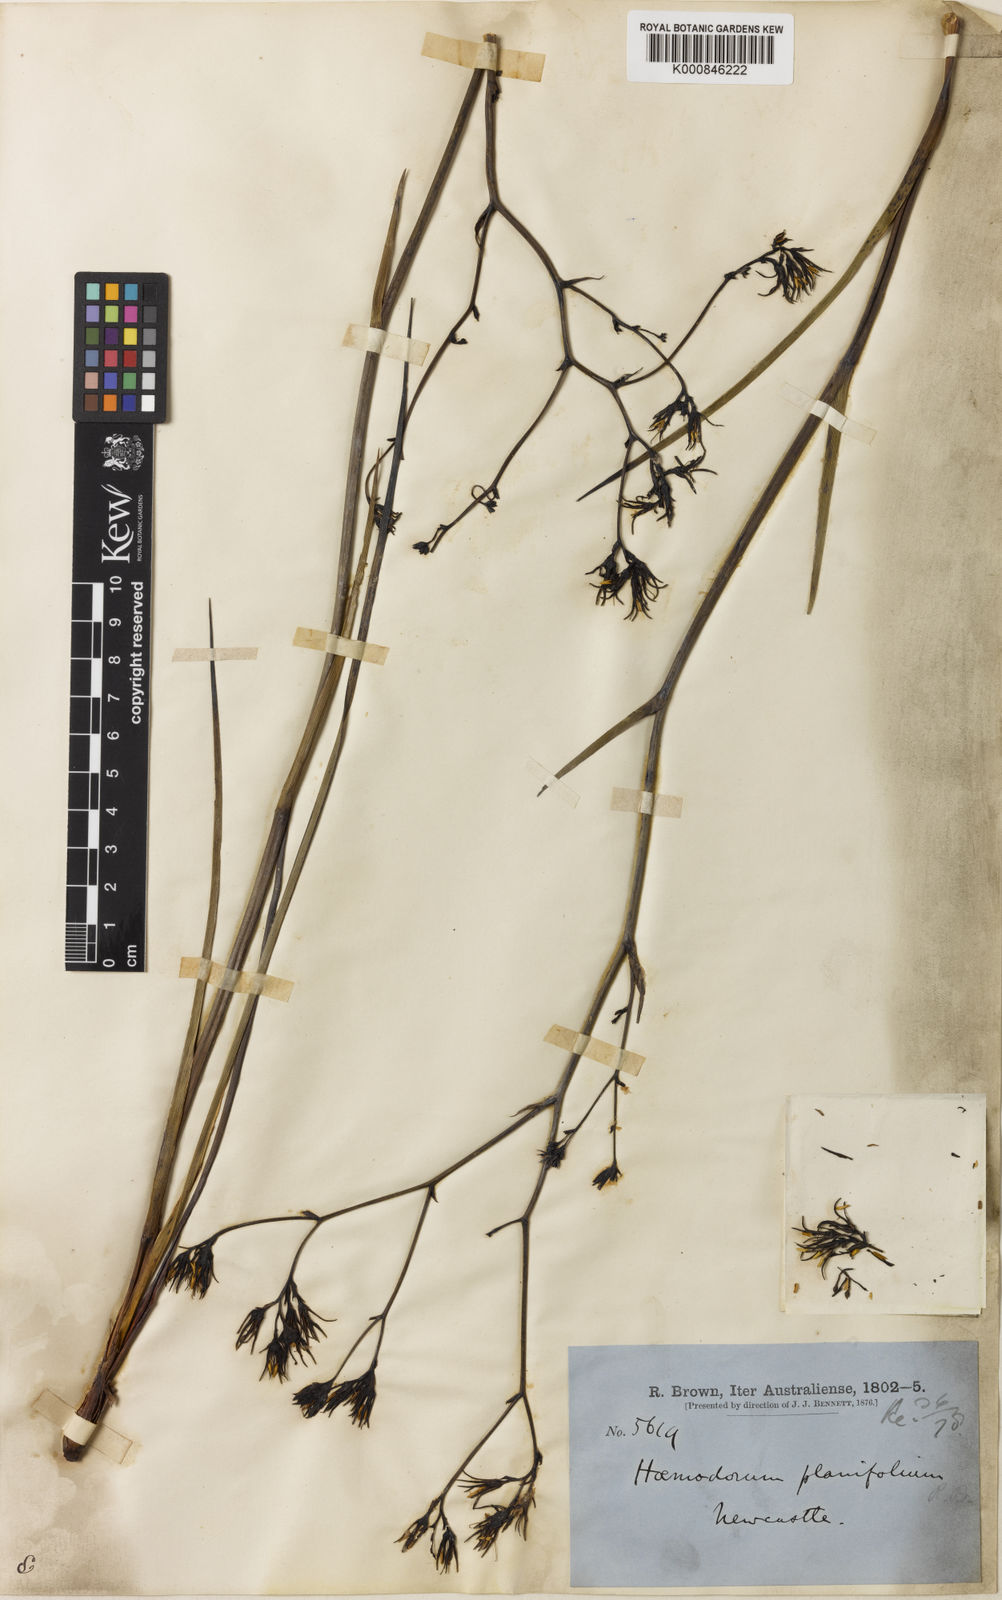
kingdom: Plantae
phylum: Tracheophyta
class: Liliopsida
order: Commelinales
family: Haemodoraceae
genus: Haemodorum
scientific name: Haemodorum planifolium
